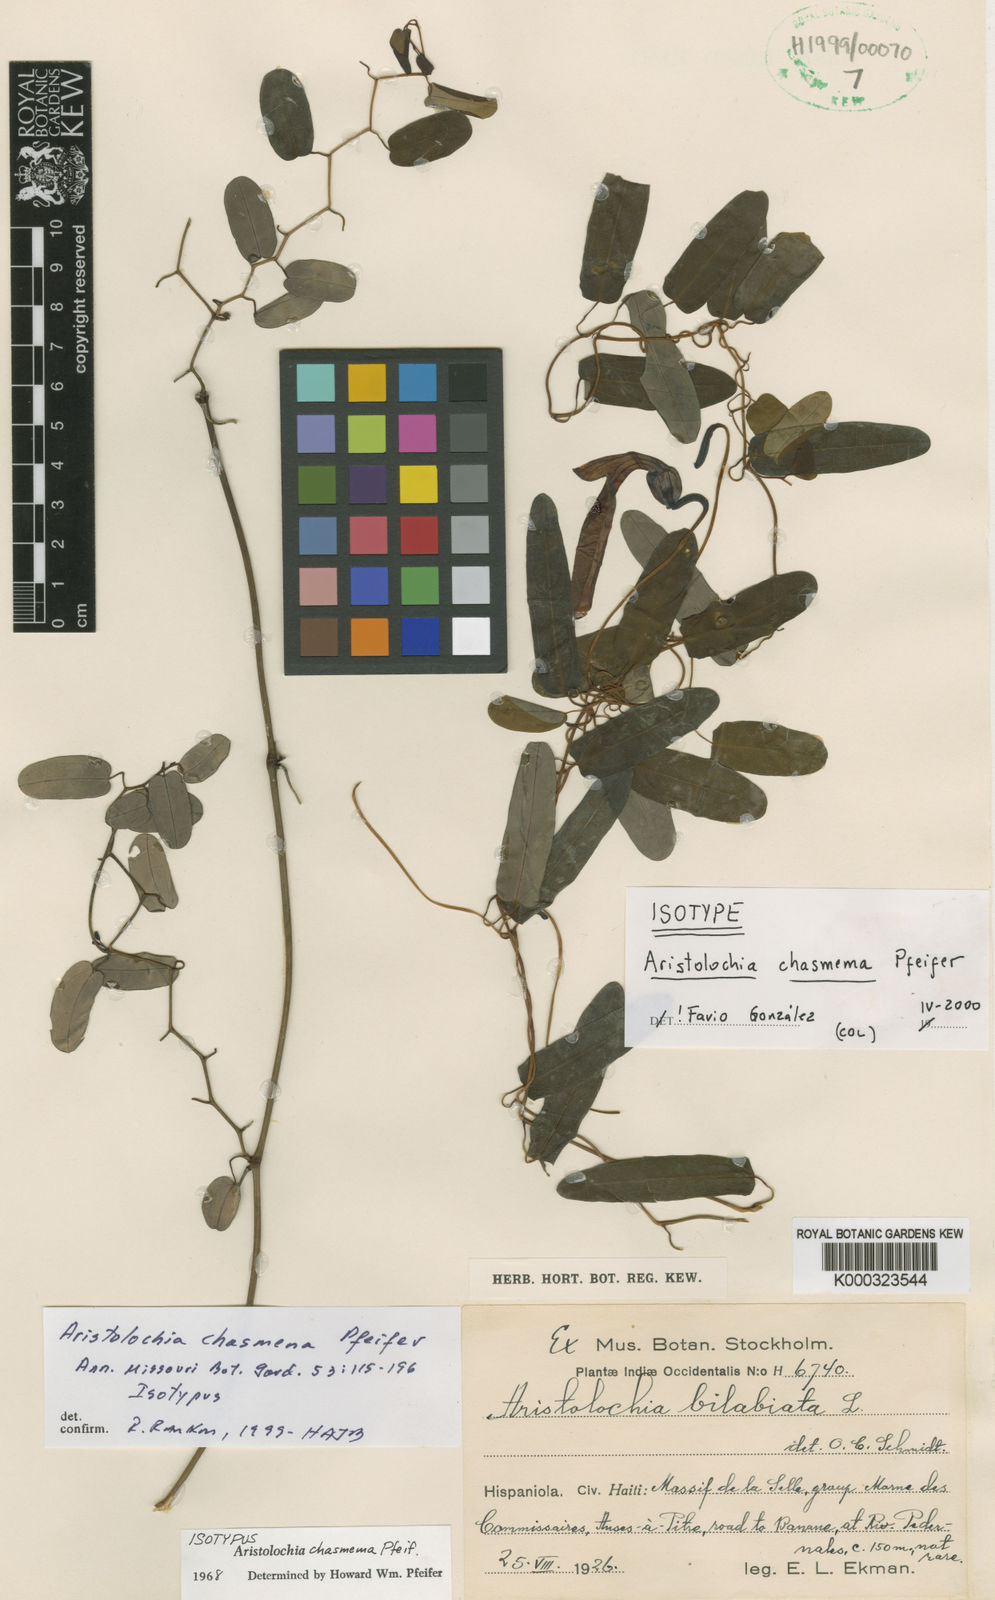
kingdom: Plantae
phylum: Tracheophyta
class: Magnoliopsida
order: Piperales
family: Aristolochiaceae
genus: Aristolochia
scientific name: Aristolochia bilabiata
